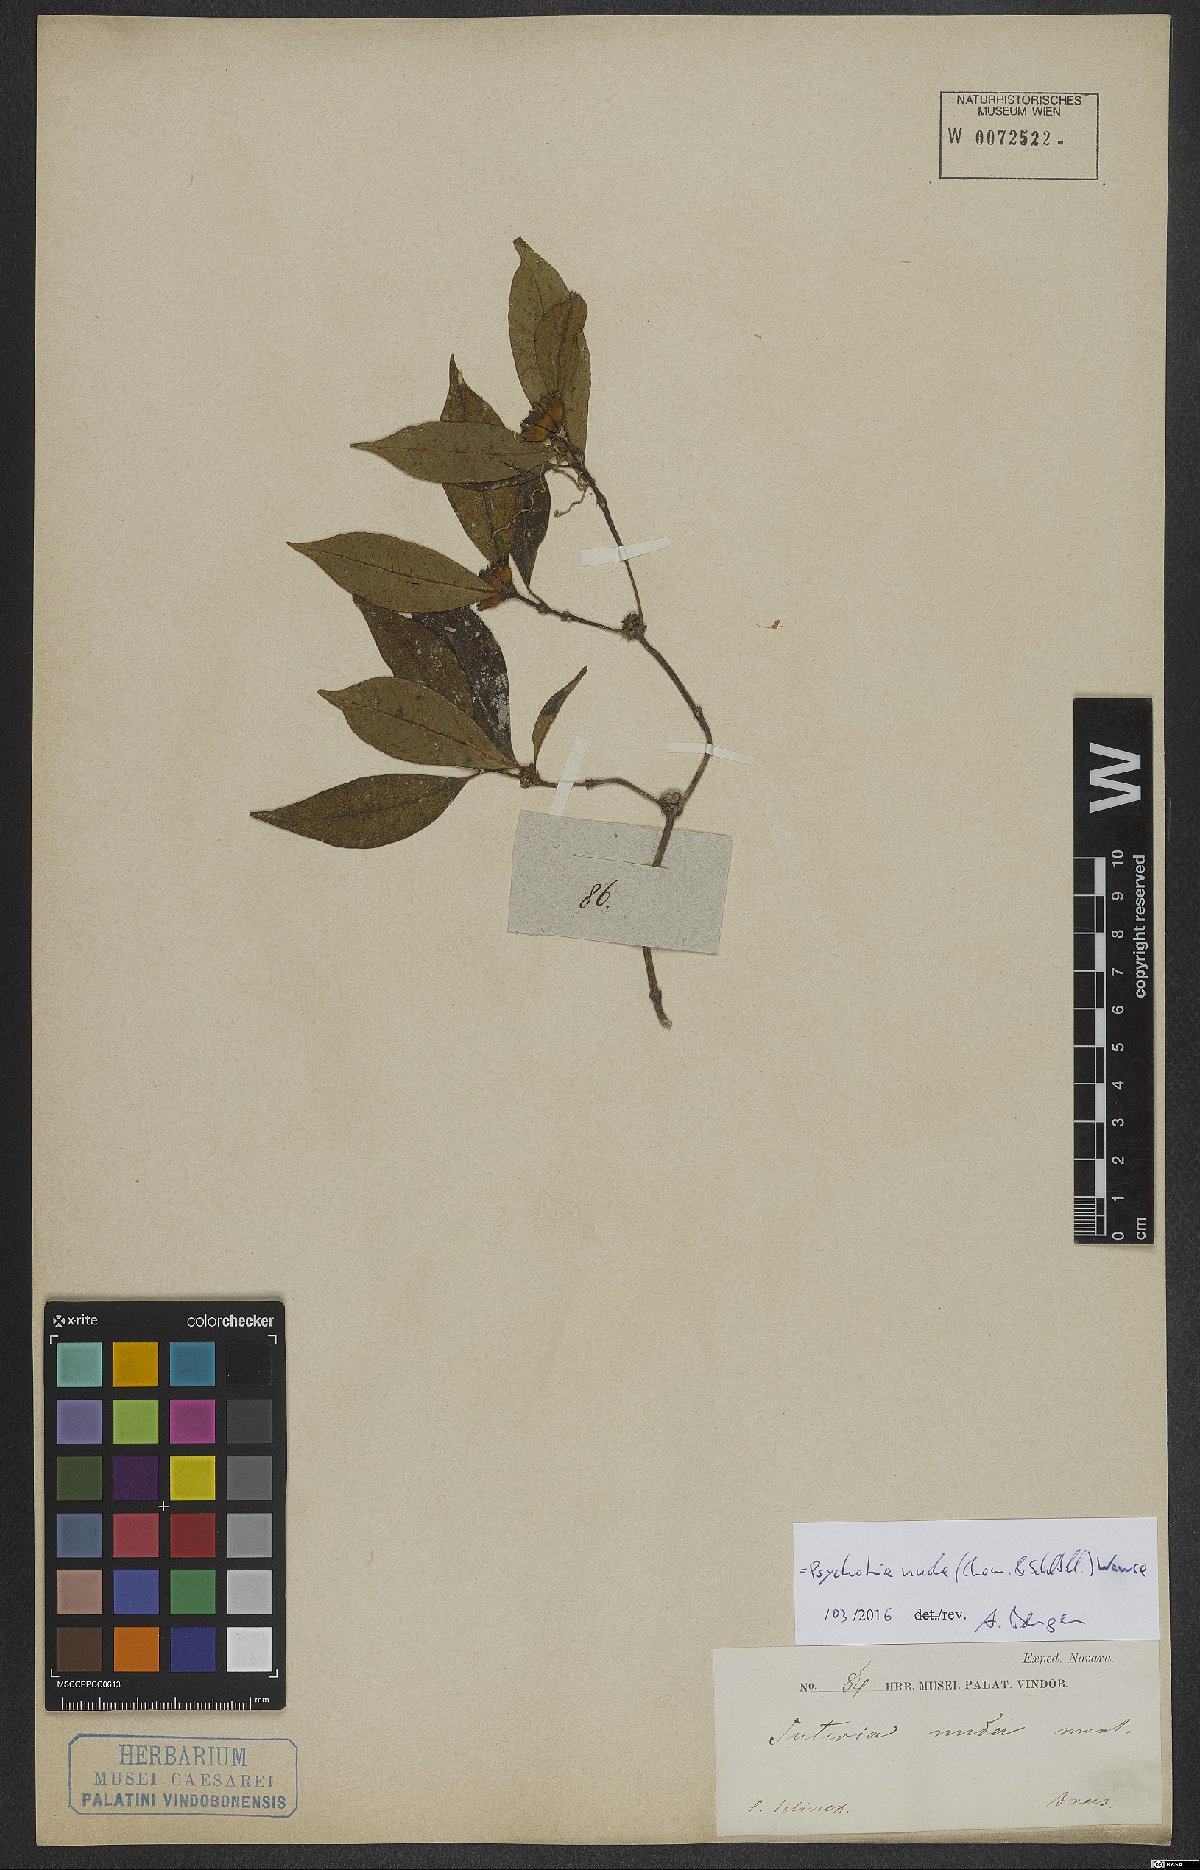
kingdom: Plantae
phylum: Tracheophyta
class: Magnoliopsida
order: Gentianales
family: Rubiaceae
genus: Psychotria
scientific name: Psychotria nuda
